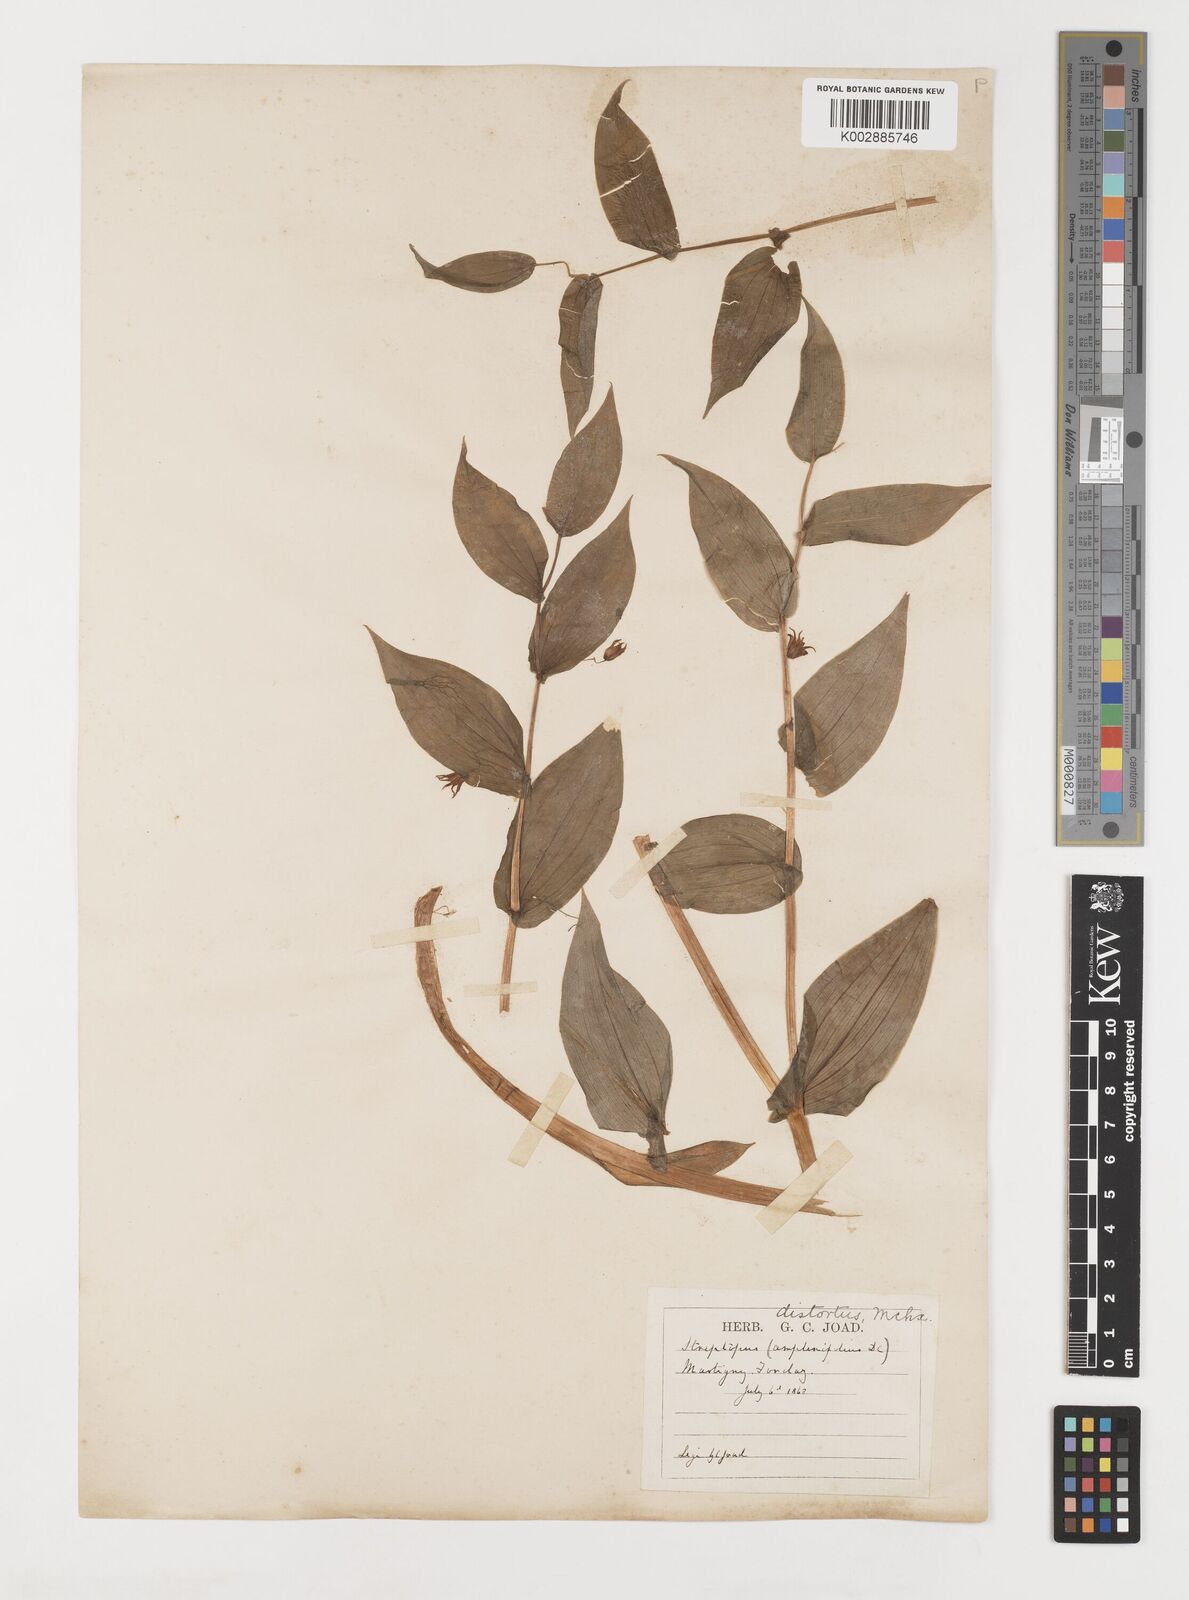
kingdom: Plantae
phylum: Tracheophyta
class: Liliopsida
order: Liliales
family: Liliaceae
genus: Streptopus
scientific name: Streptopus amplexifolius
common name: Clasp twisted stalk
